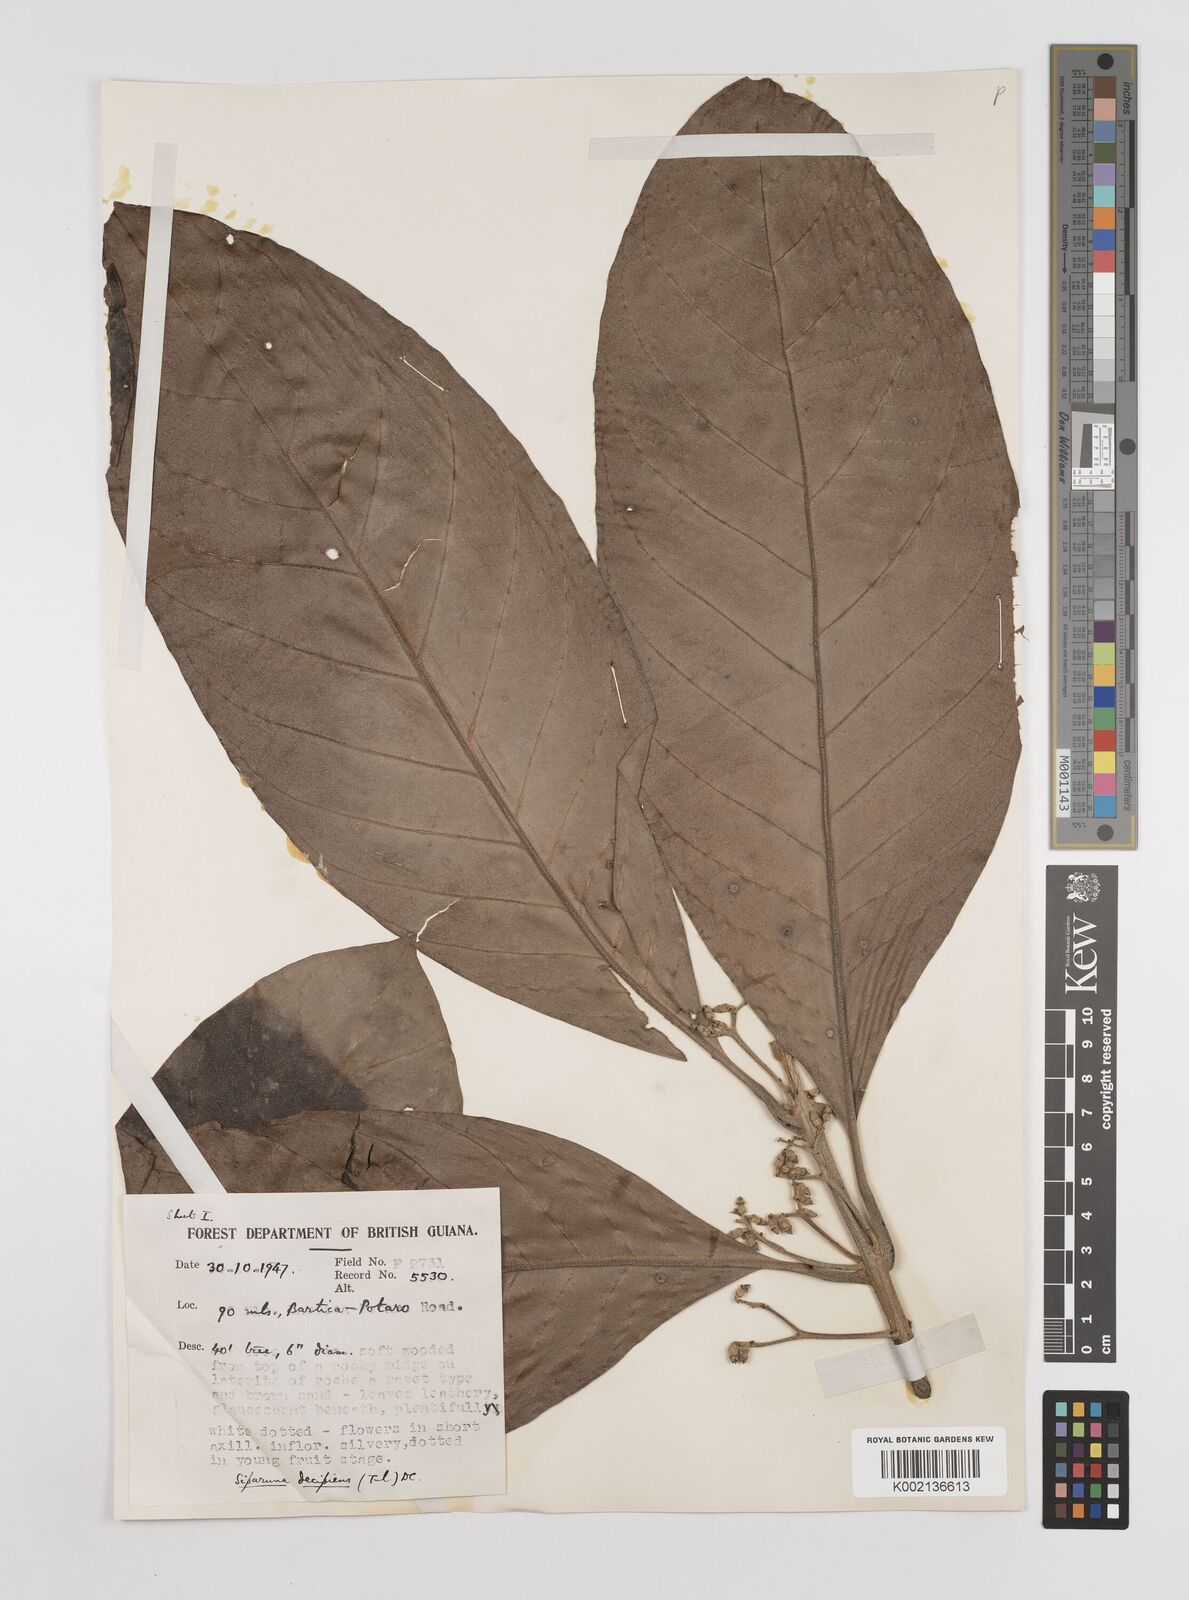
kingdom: Plantae
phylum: Tracheophyta
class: Magnoliopsida
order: Laurales
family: Siparunaceae
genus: Siparuna
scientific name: Siparuna decipiens
